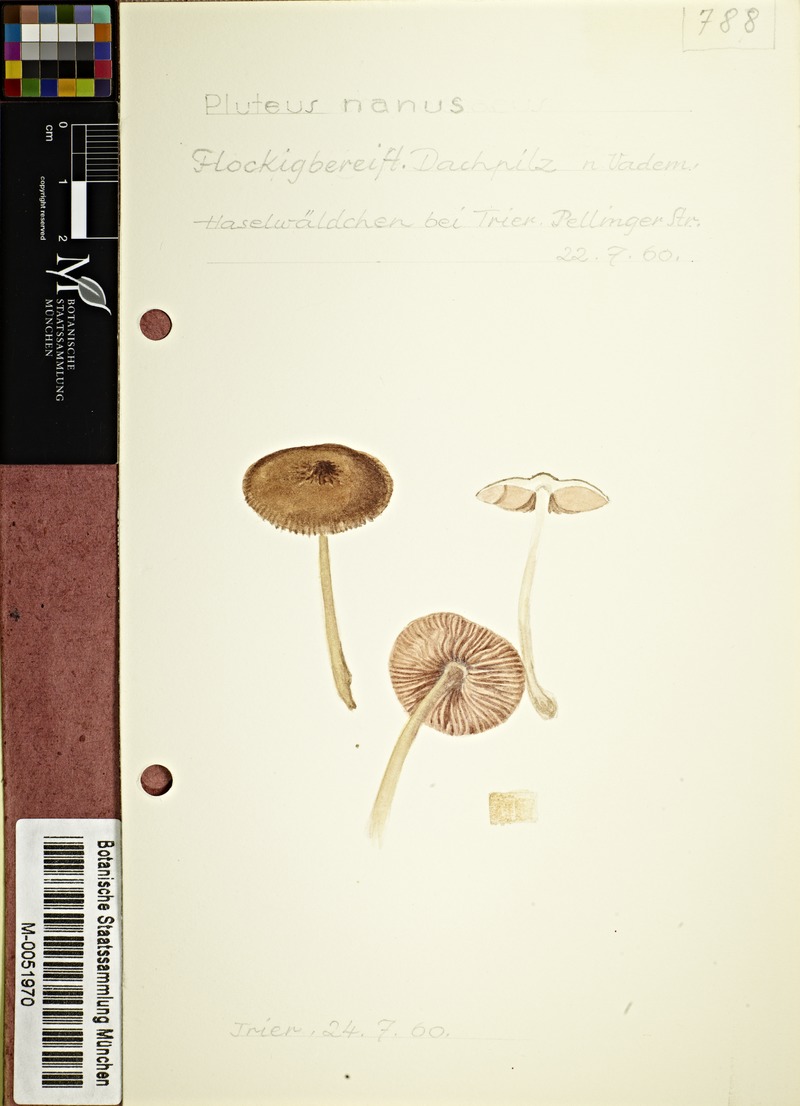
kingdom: Fungi
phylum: Basidiomycota
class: Agaricomycetes
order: Agaricales
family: Pluteaceae
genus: Pluteus
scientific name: Pluteus nanus
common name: Dwarf shield
